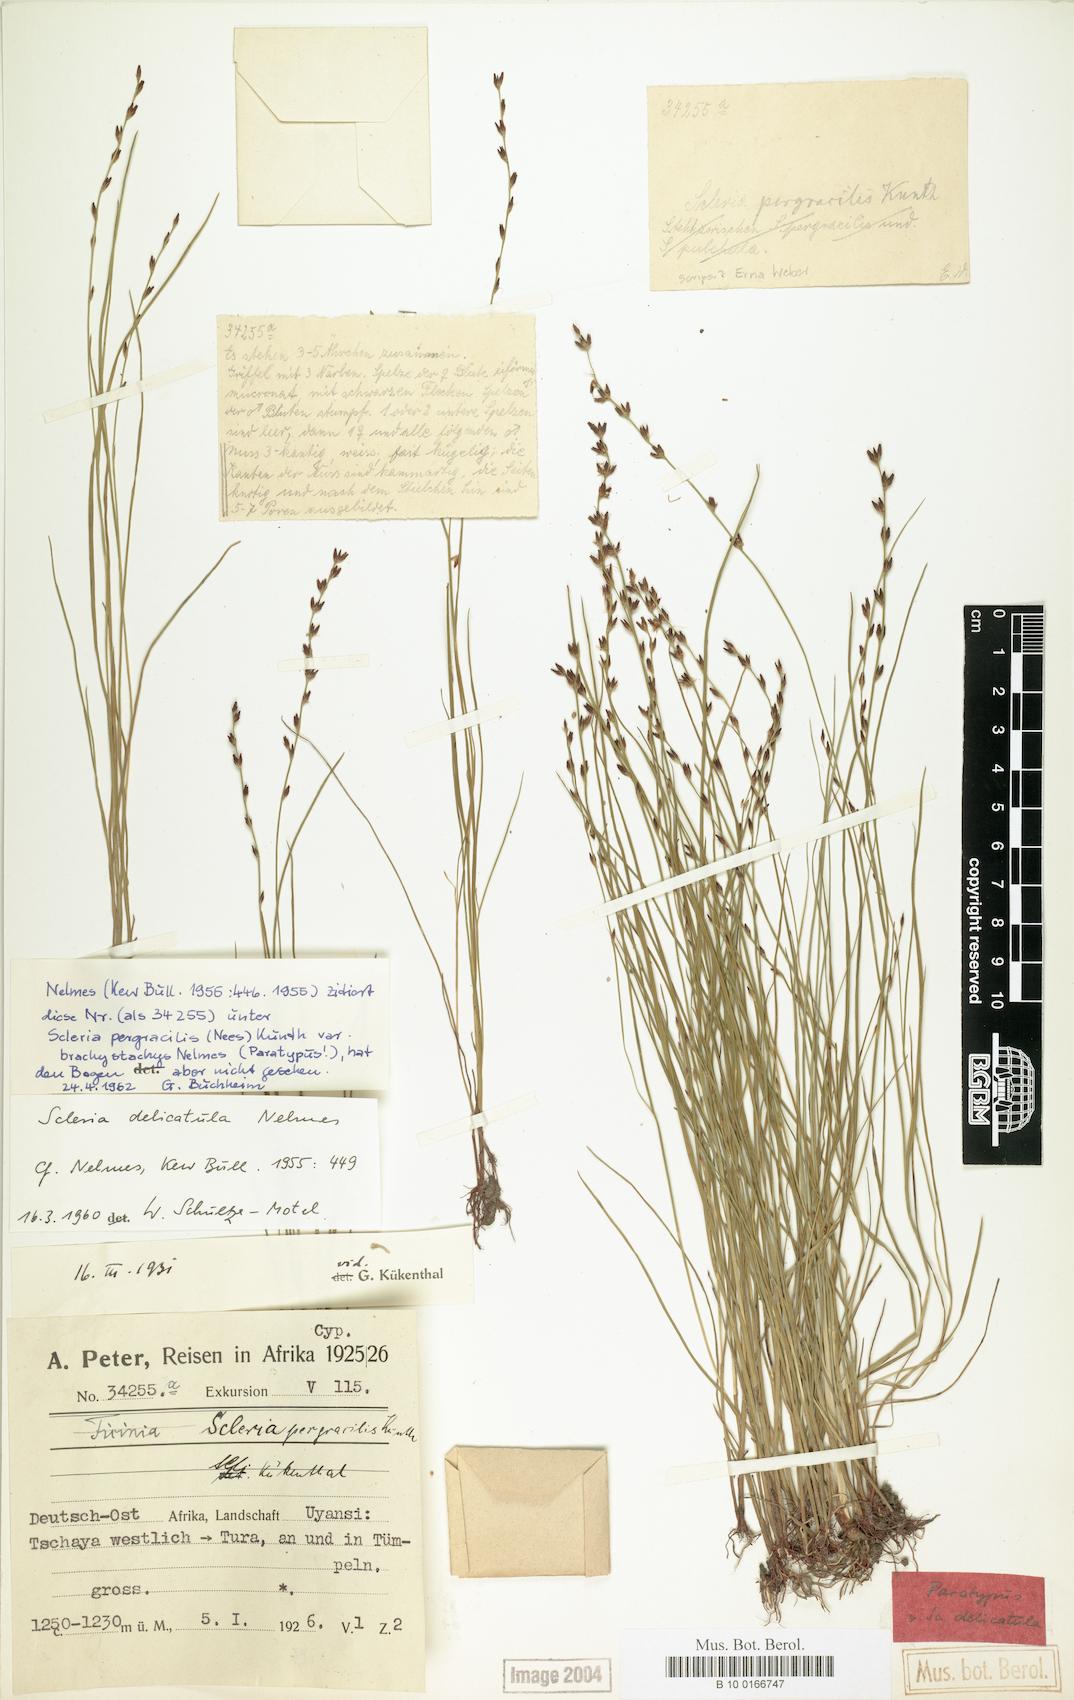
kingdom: Plantae
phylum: Tracheophyta
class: Liliopsida
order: Poales
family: Cyperaceae
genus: Scleria
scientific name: Scleria delicatula
